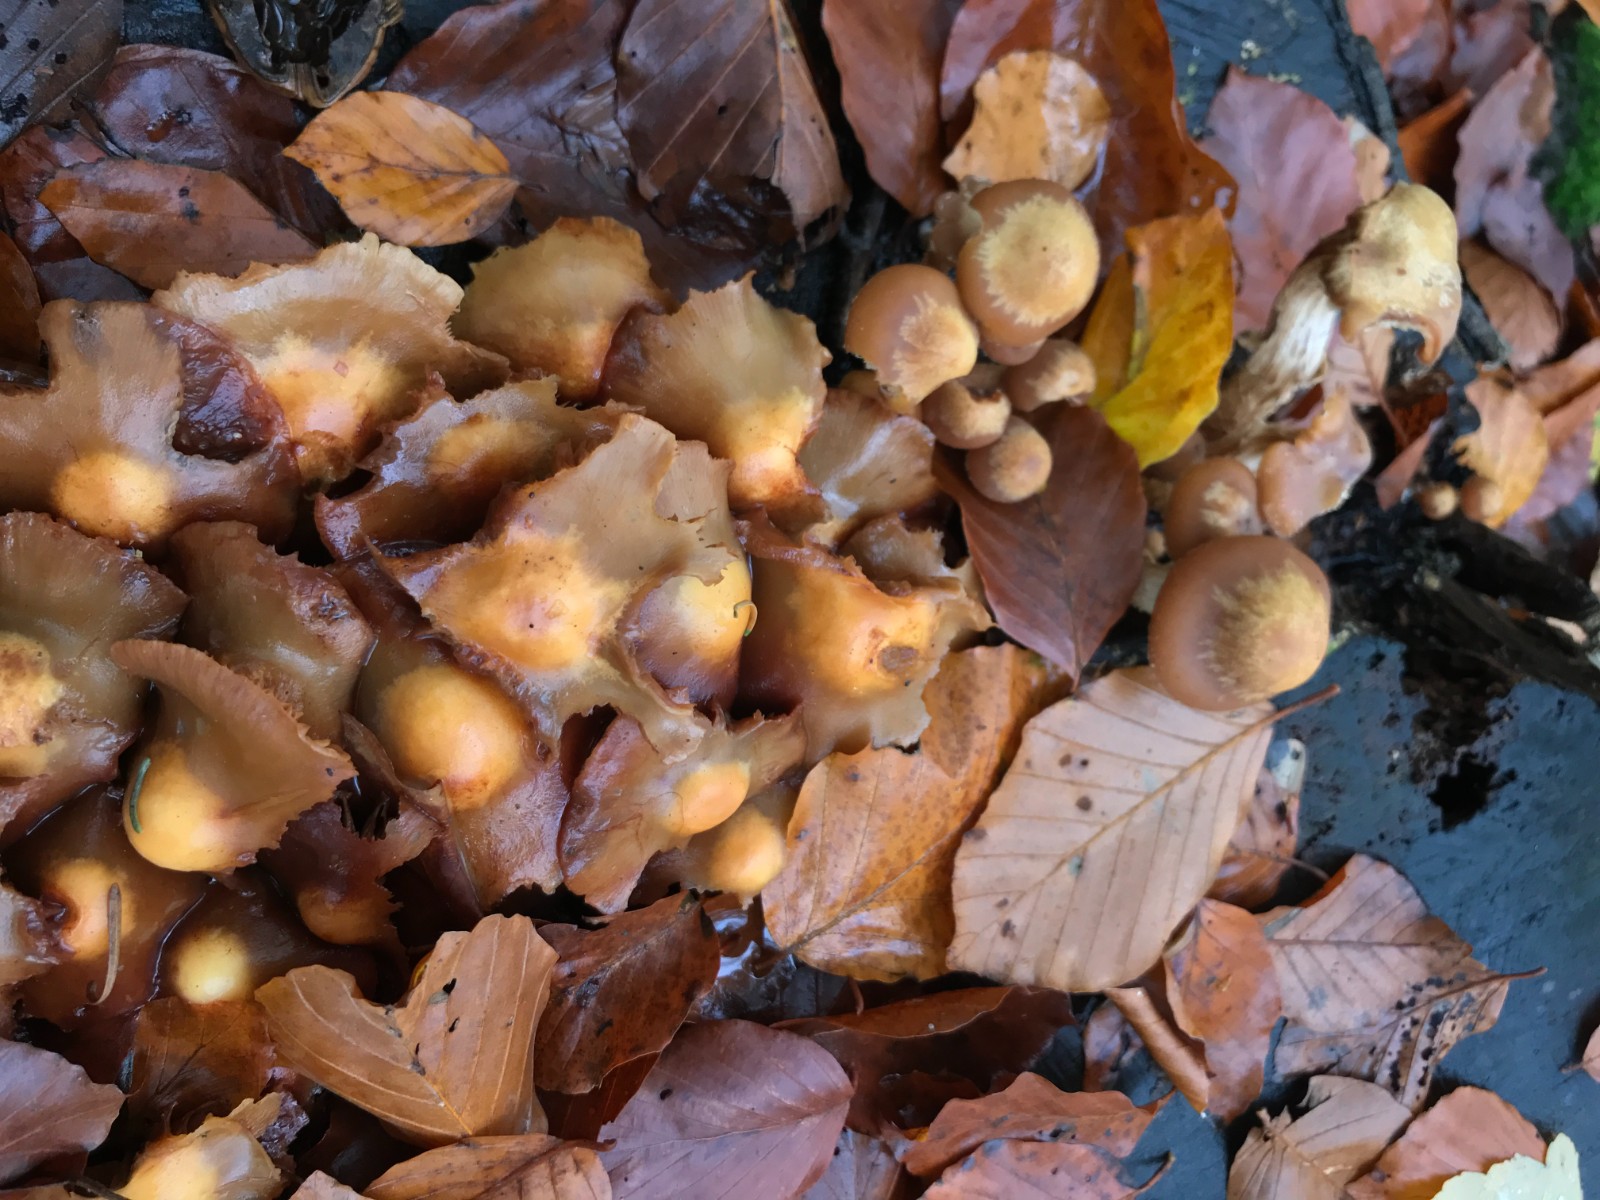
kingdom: Fungi
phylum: Basidiomycota
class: Agaricomycetes
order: Agaricales
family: Strophariaceae
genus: Kuehneromyces
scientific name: Kuehneromyces mutabilis
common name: foranderlig skælhat
